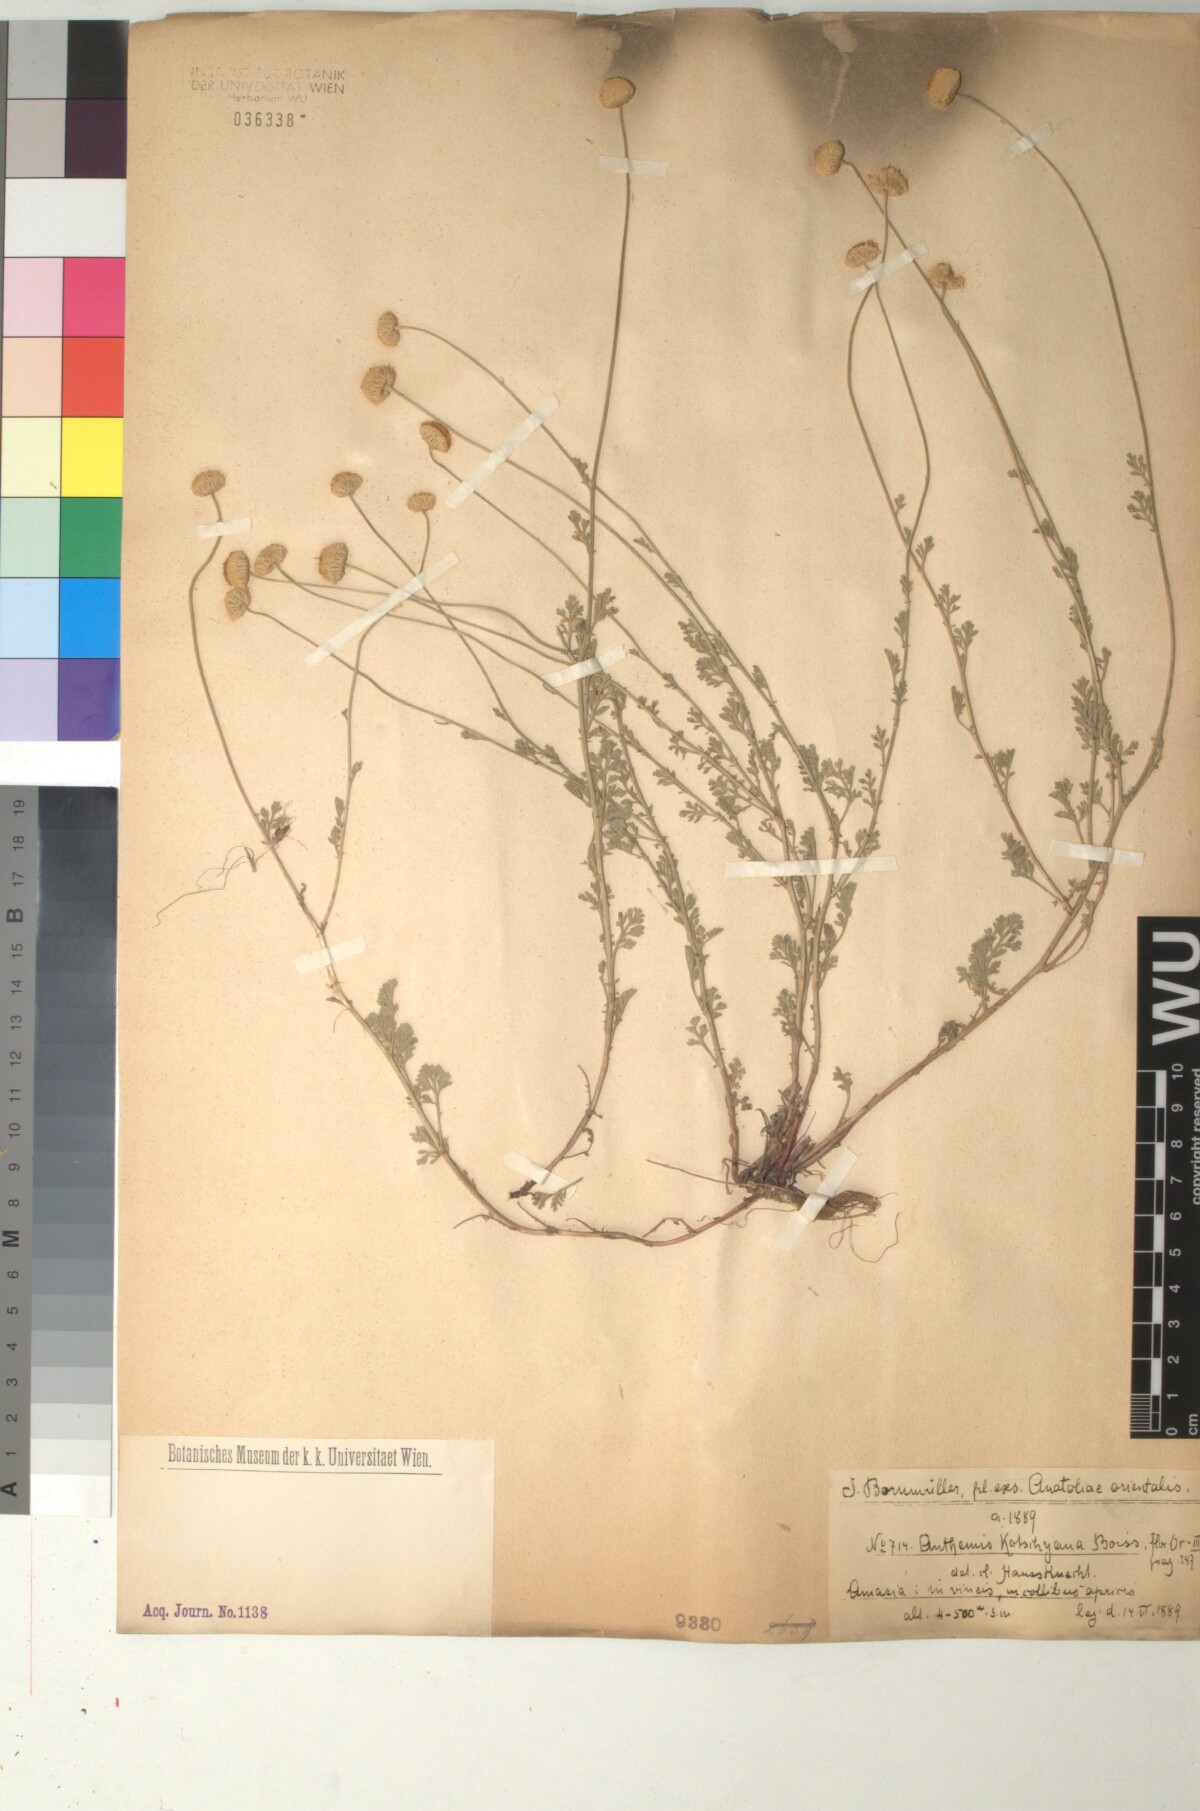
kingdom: Plantae
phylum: Tracheophyta
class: Magnoliopsida
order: Asterales
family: Asteraceae
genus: Anthemis
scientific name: Anthemis kotschyana
